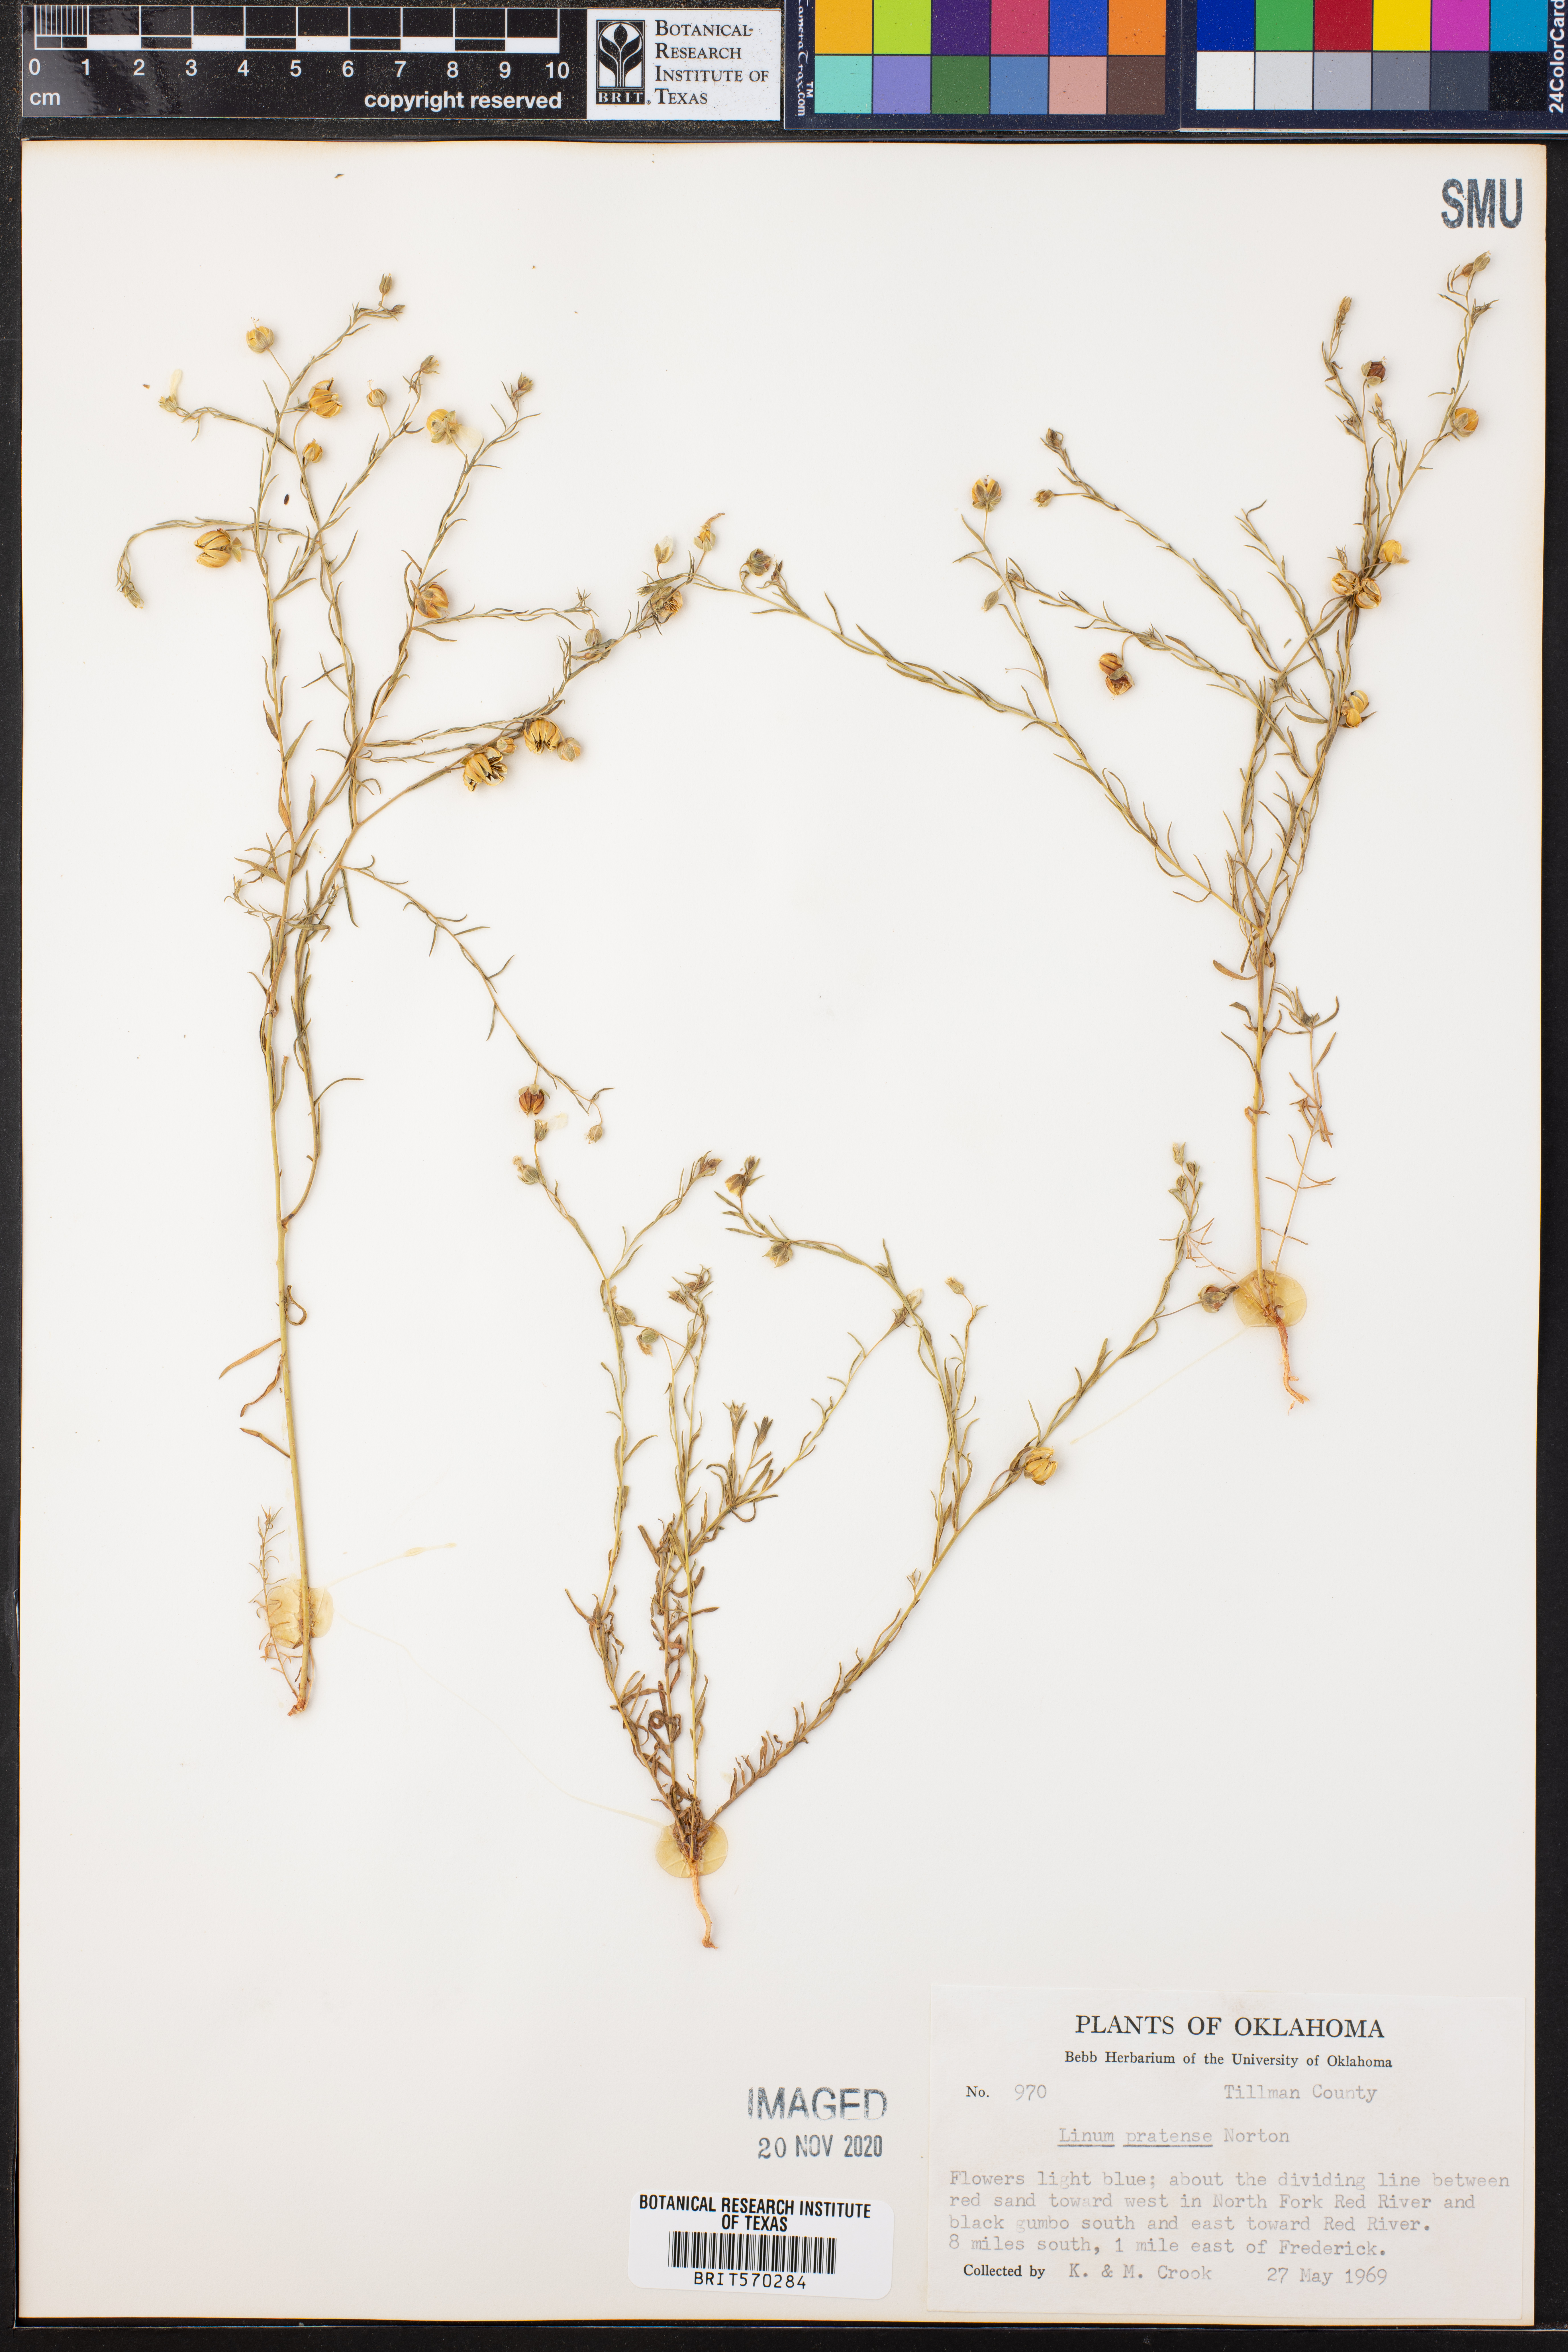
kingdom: Plantae
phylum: Tracheophyta
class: Magnoliopsida
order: Malpighiales
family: Linaceae
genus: Linum
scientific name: Linum pratense
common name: Norton's flax
